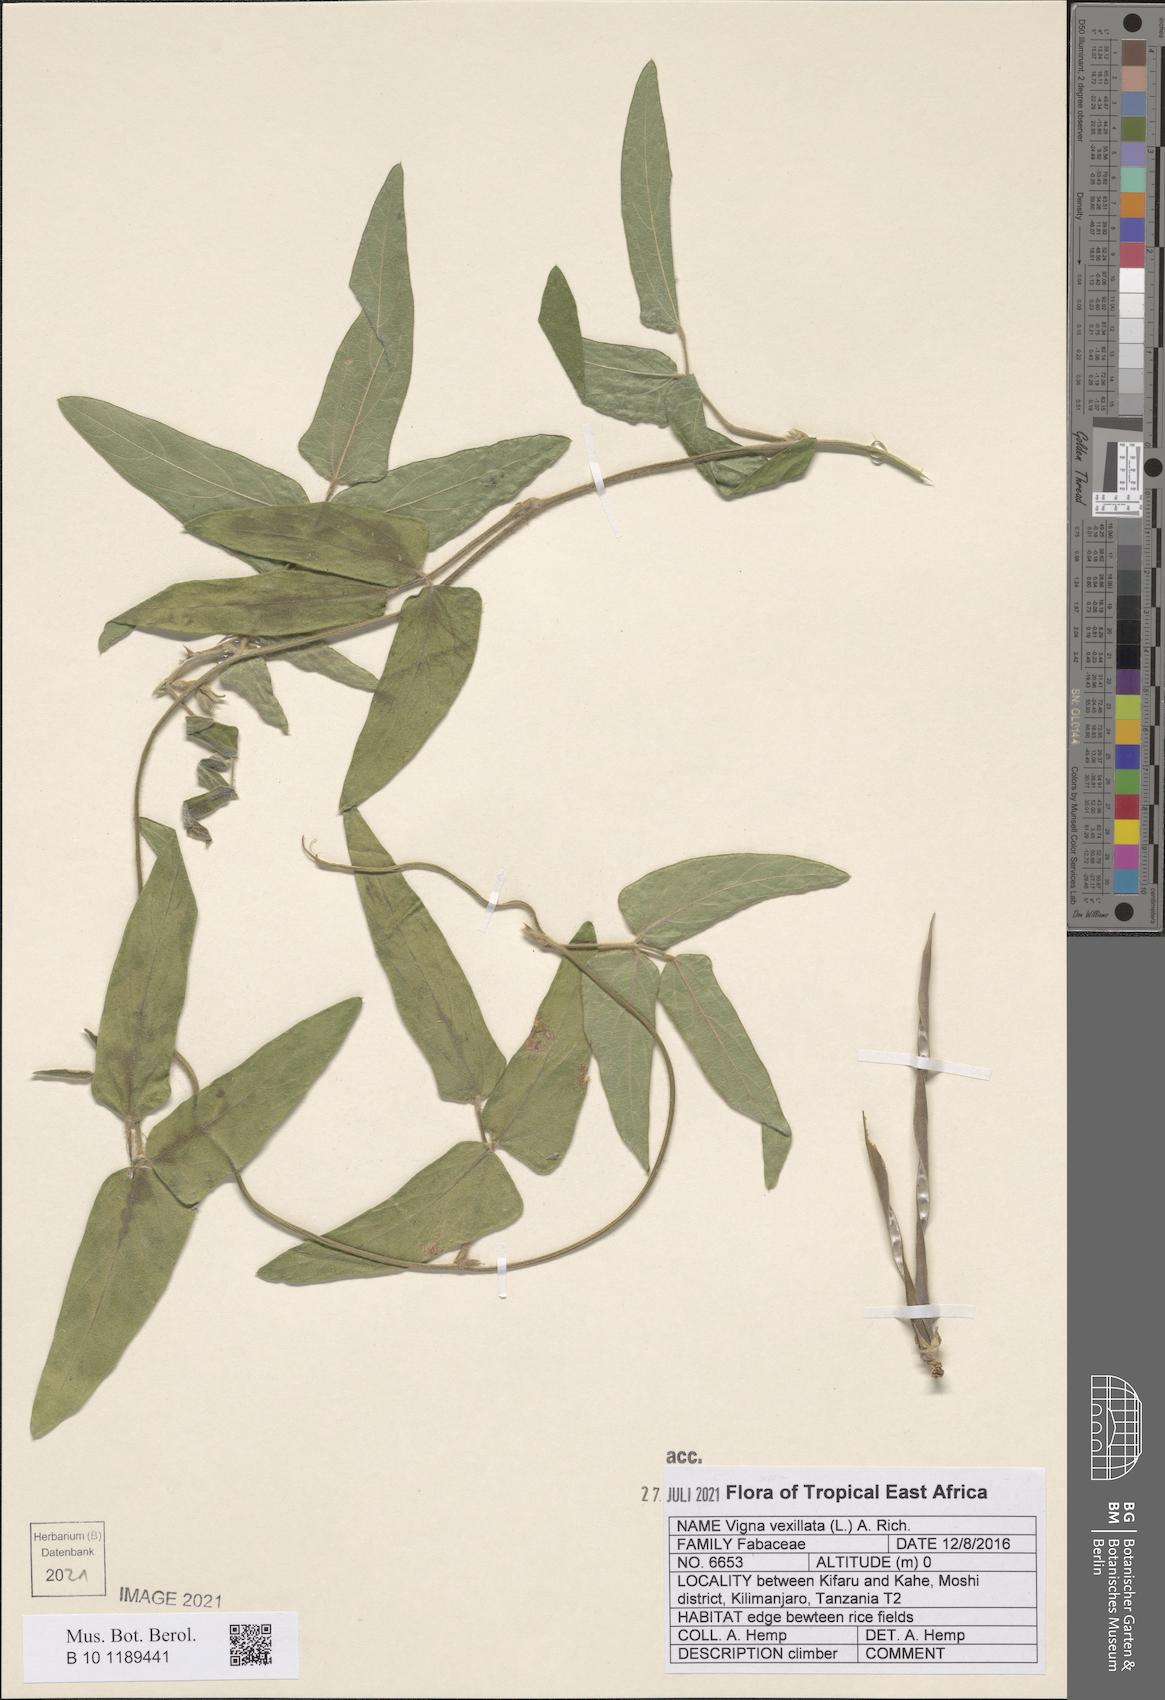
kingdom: Plantae
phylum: Tracheophyta
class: Magnoliopsida
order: Fabales
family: Fabaceae
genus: Vigna
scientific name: Vigna vexillata
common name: Zombi pea
